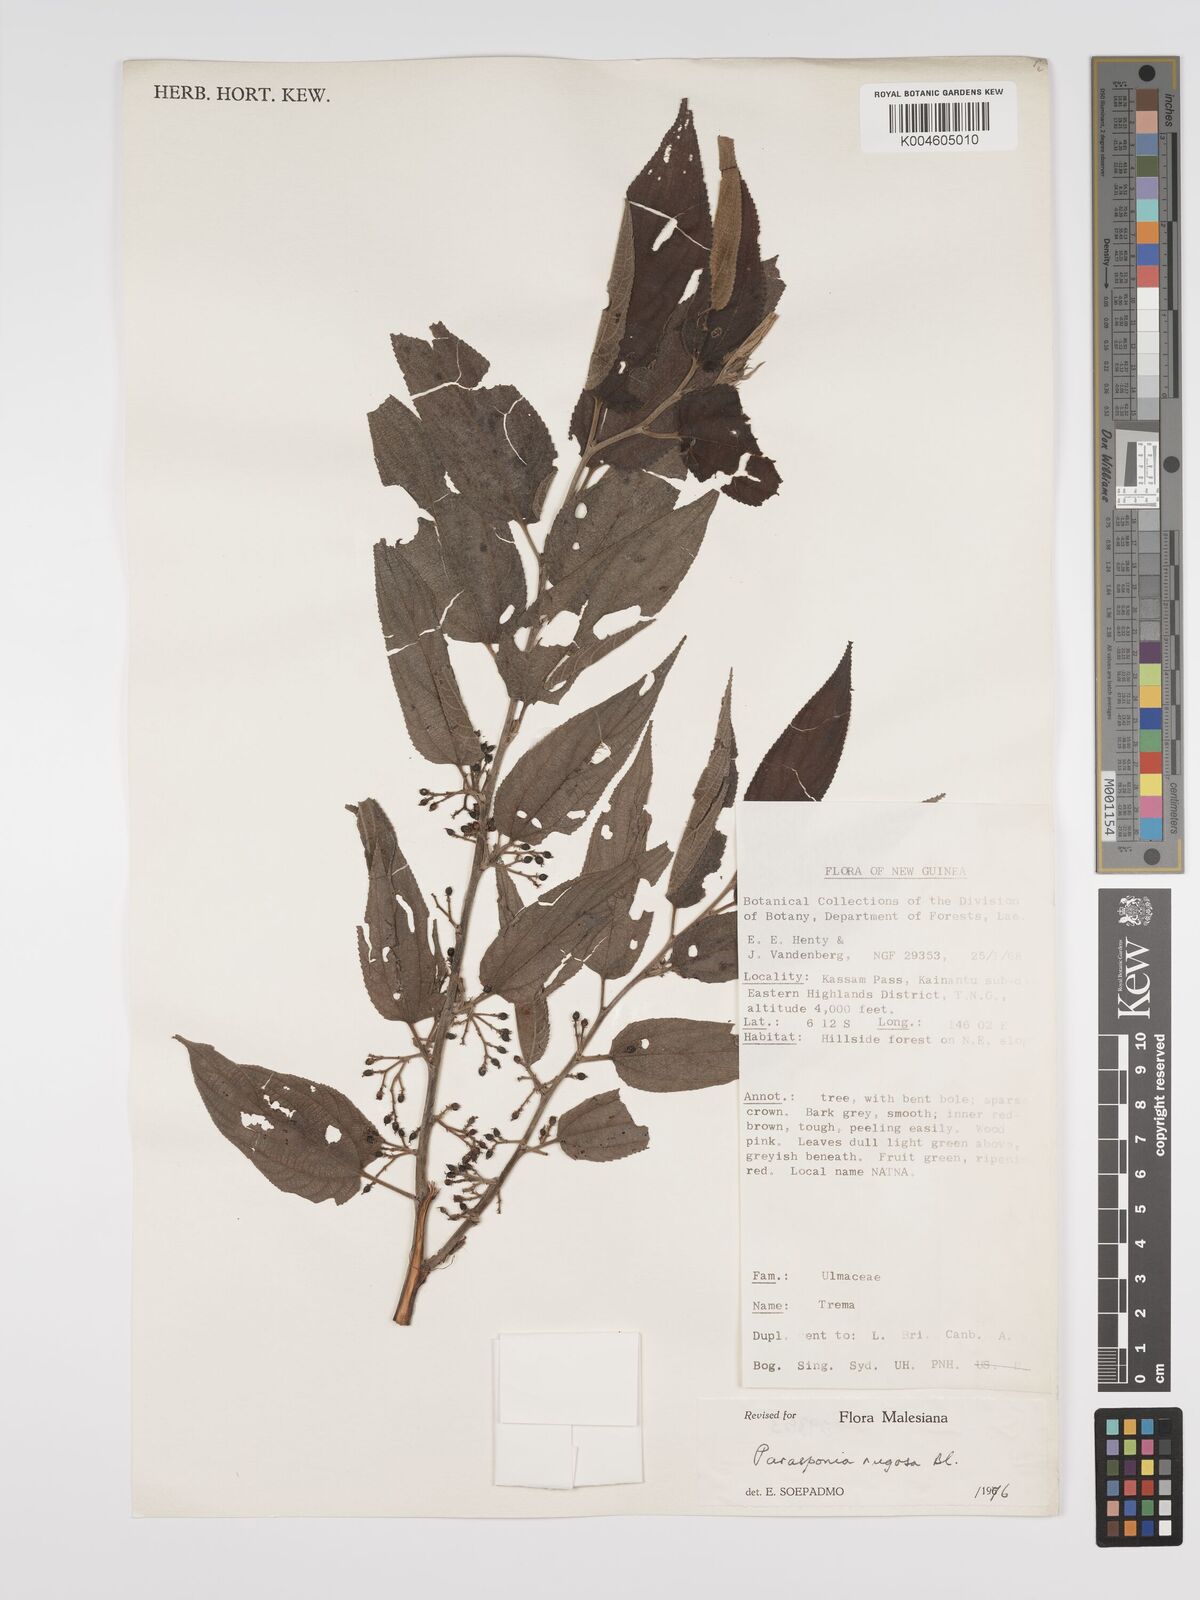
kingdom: Plantae
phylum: Tracheophyta
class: Magnoliopsida
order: Rosales
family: Cannabaceae
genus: Trema
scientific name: Trema eurhynchum
